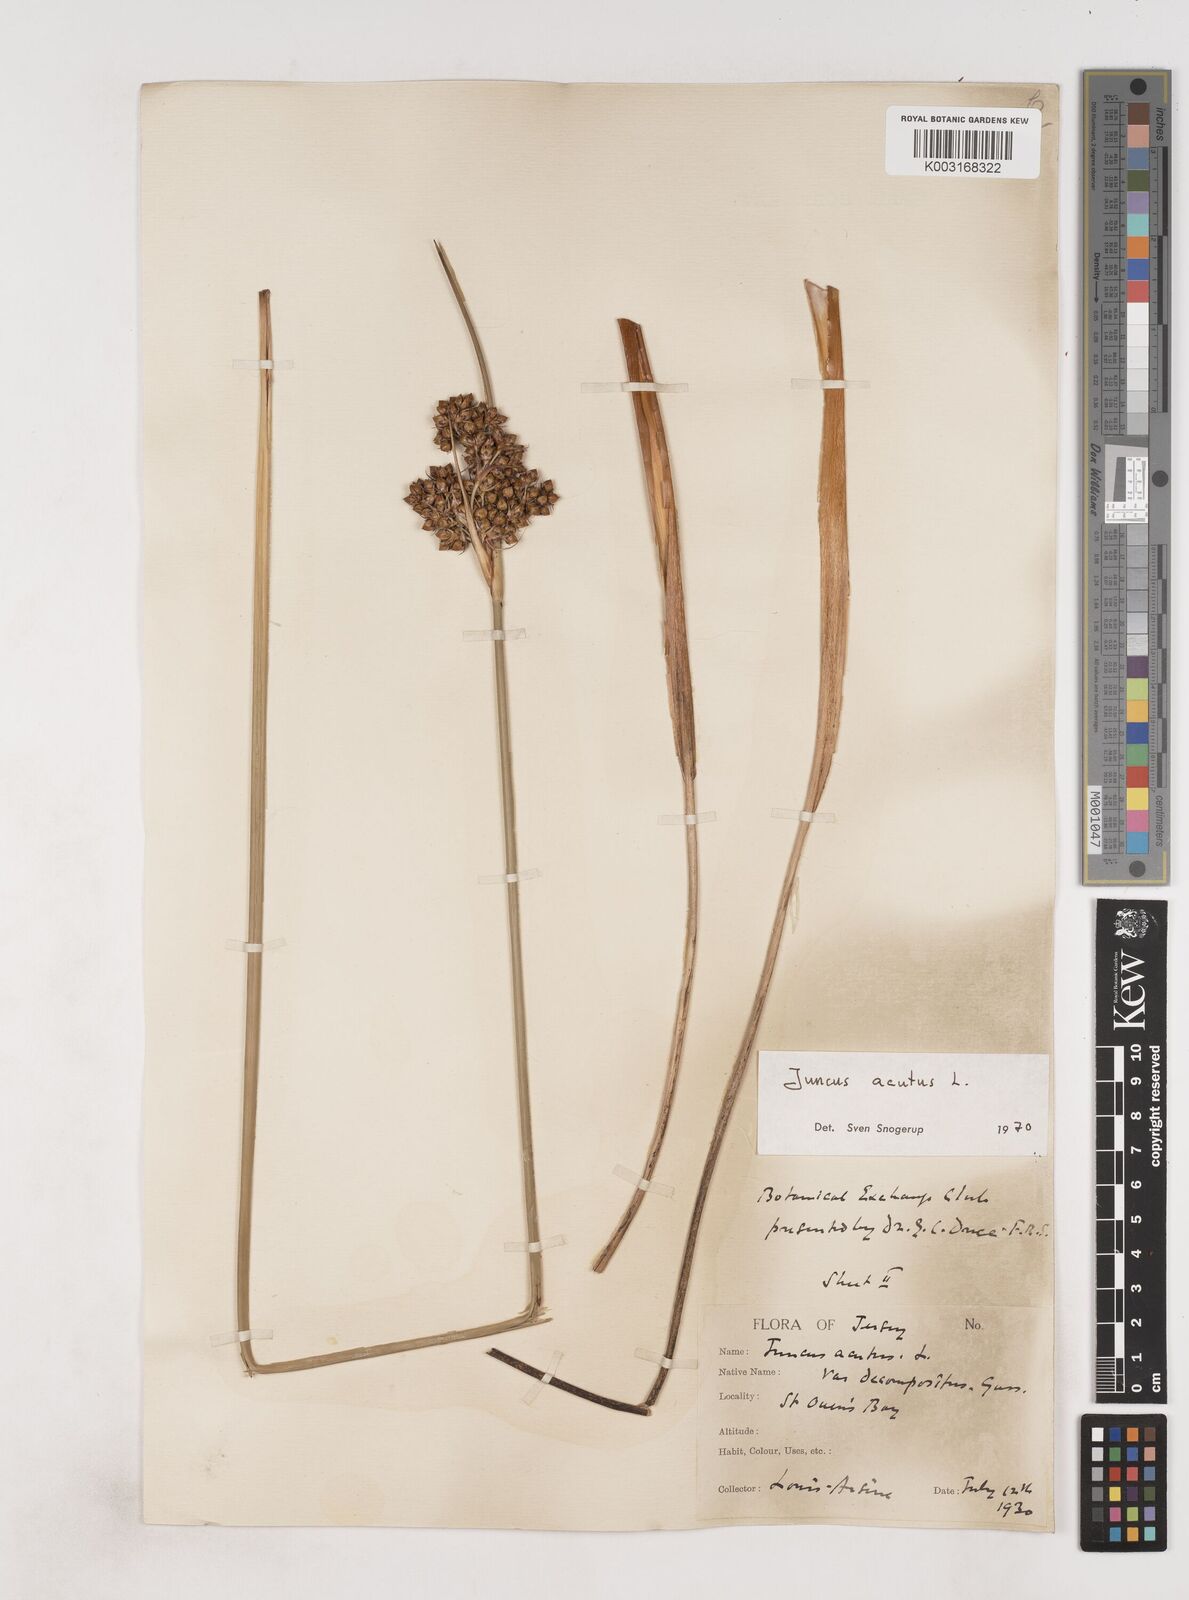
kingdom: Plantae
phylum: Tracheophyta
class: Liliopsida
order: Poales
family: Juncaceae
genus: Juncus
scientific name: Juncus acutus
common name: Sharp rush
